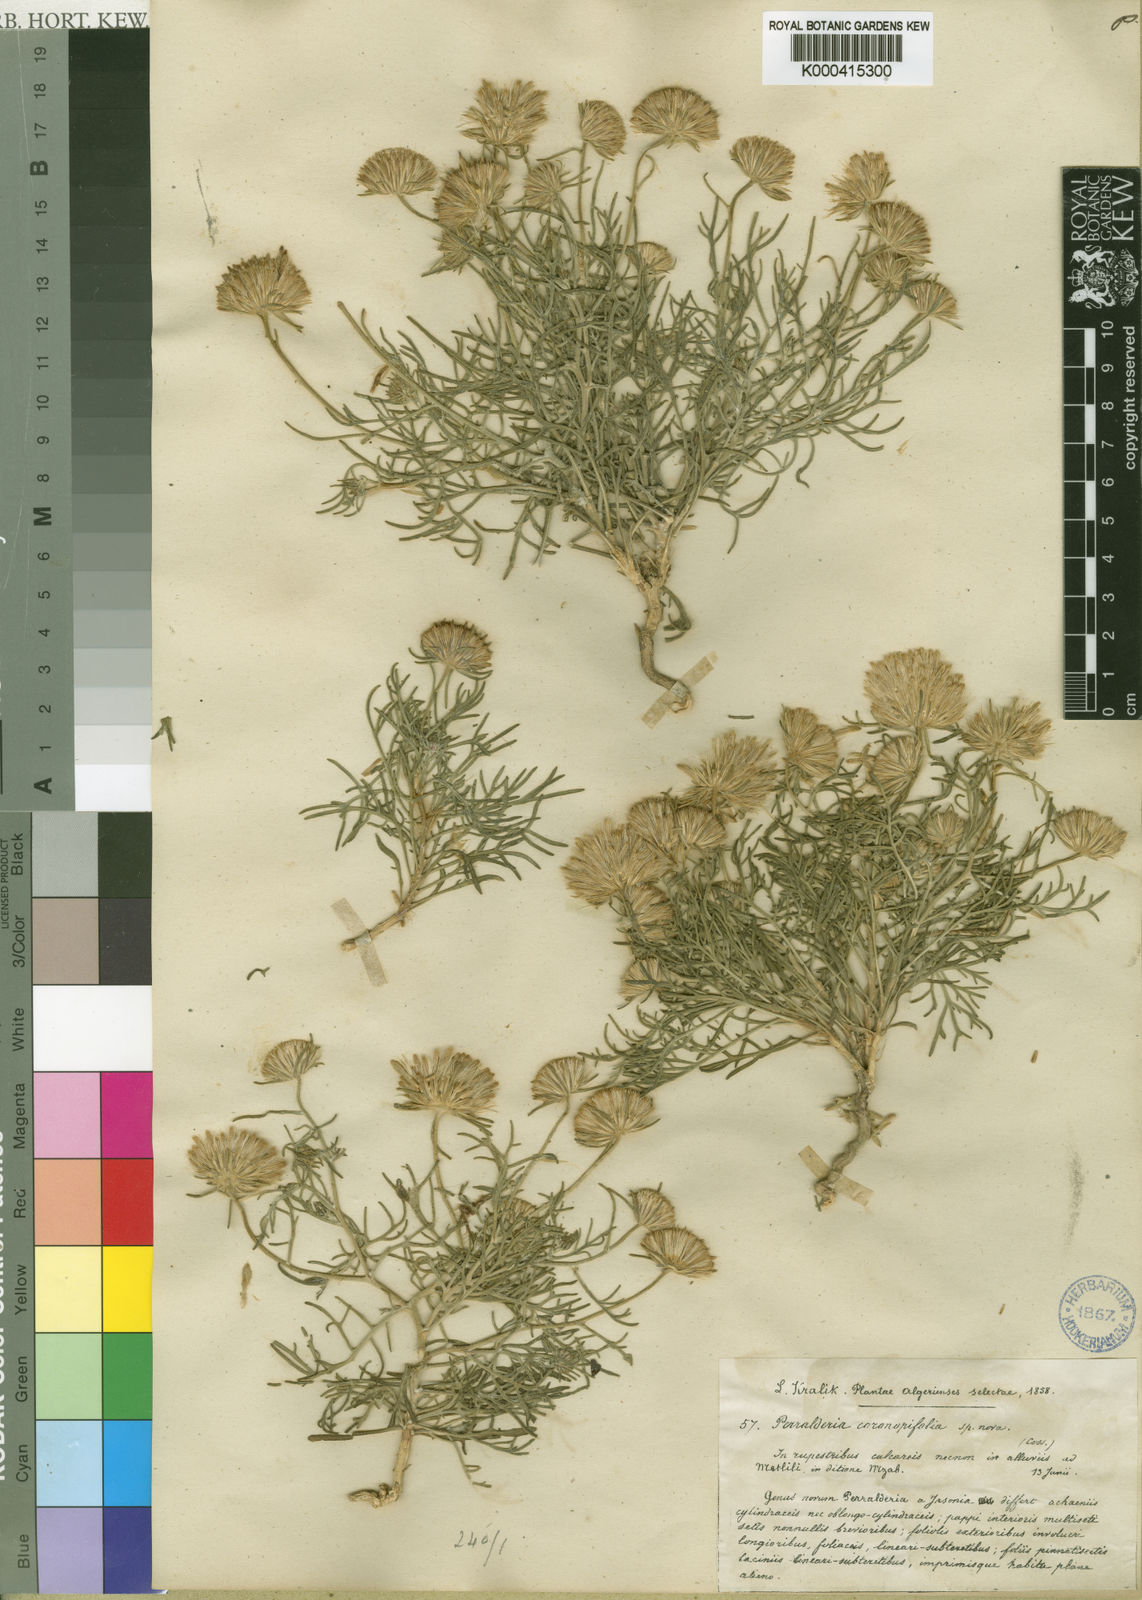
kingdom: Plantae
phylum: Tracheophyta
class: Magnoliopsida
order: Asterales
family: Asteraceae
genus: Perralderia
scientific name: Perralderia coronopifolia
